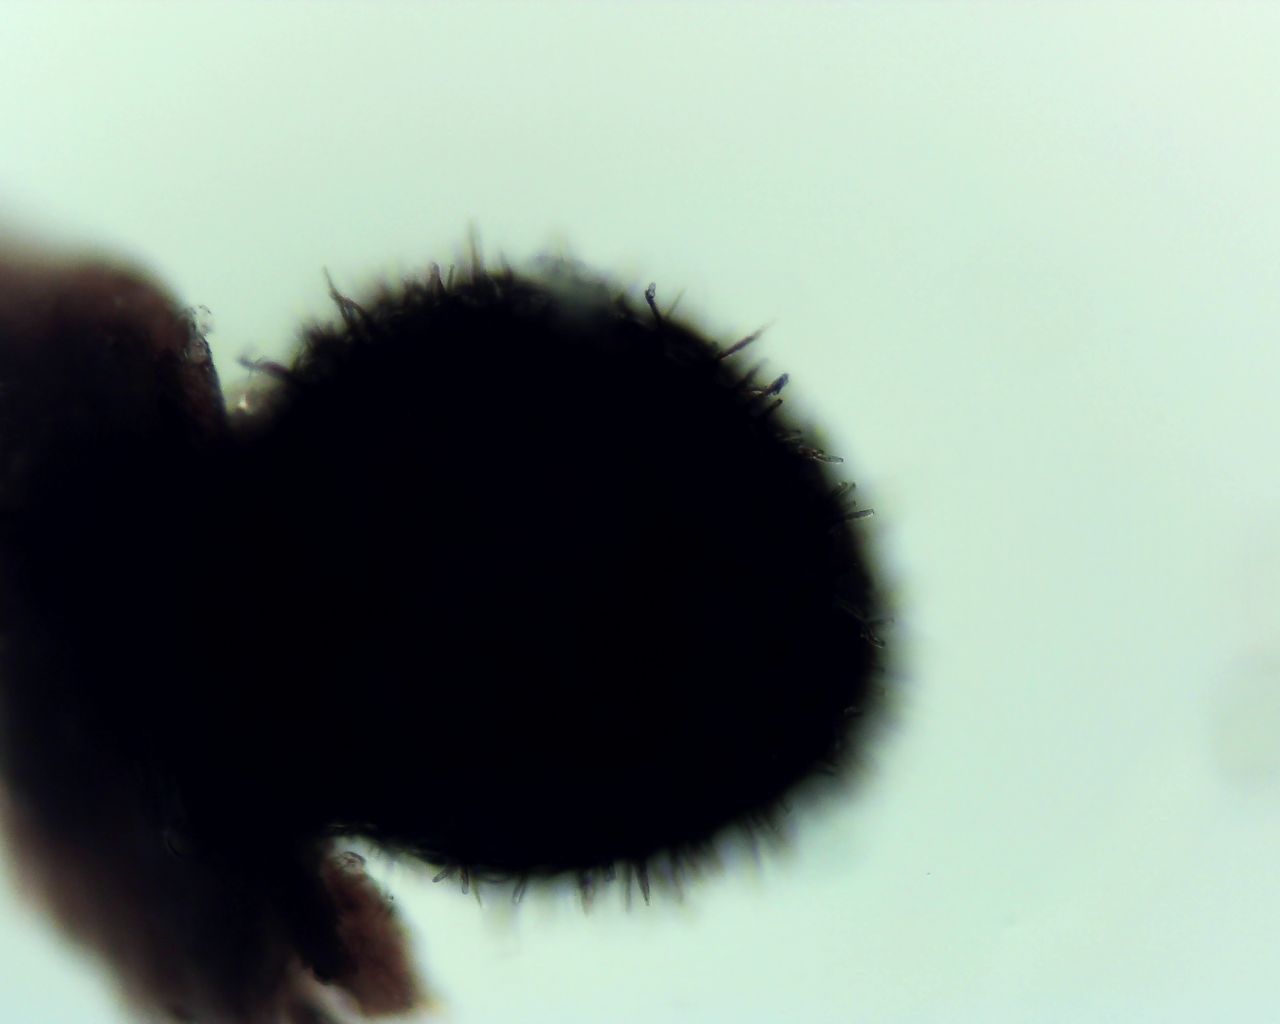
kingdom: Fungi
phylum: Ascomycota
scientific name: Ascomycota
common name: sæksvampe
